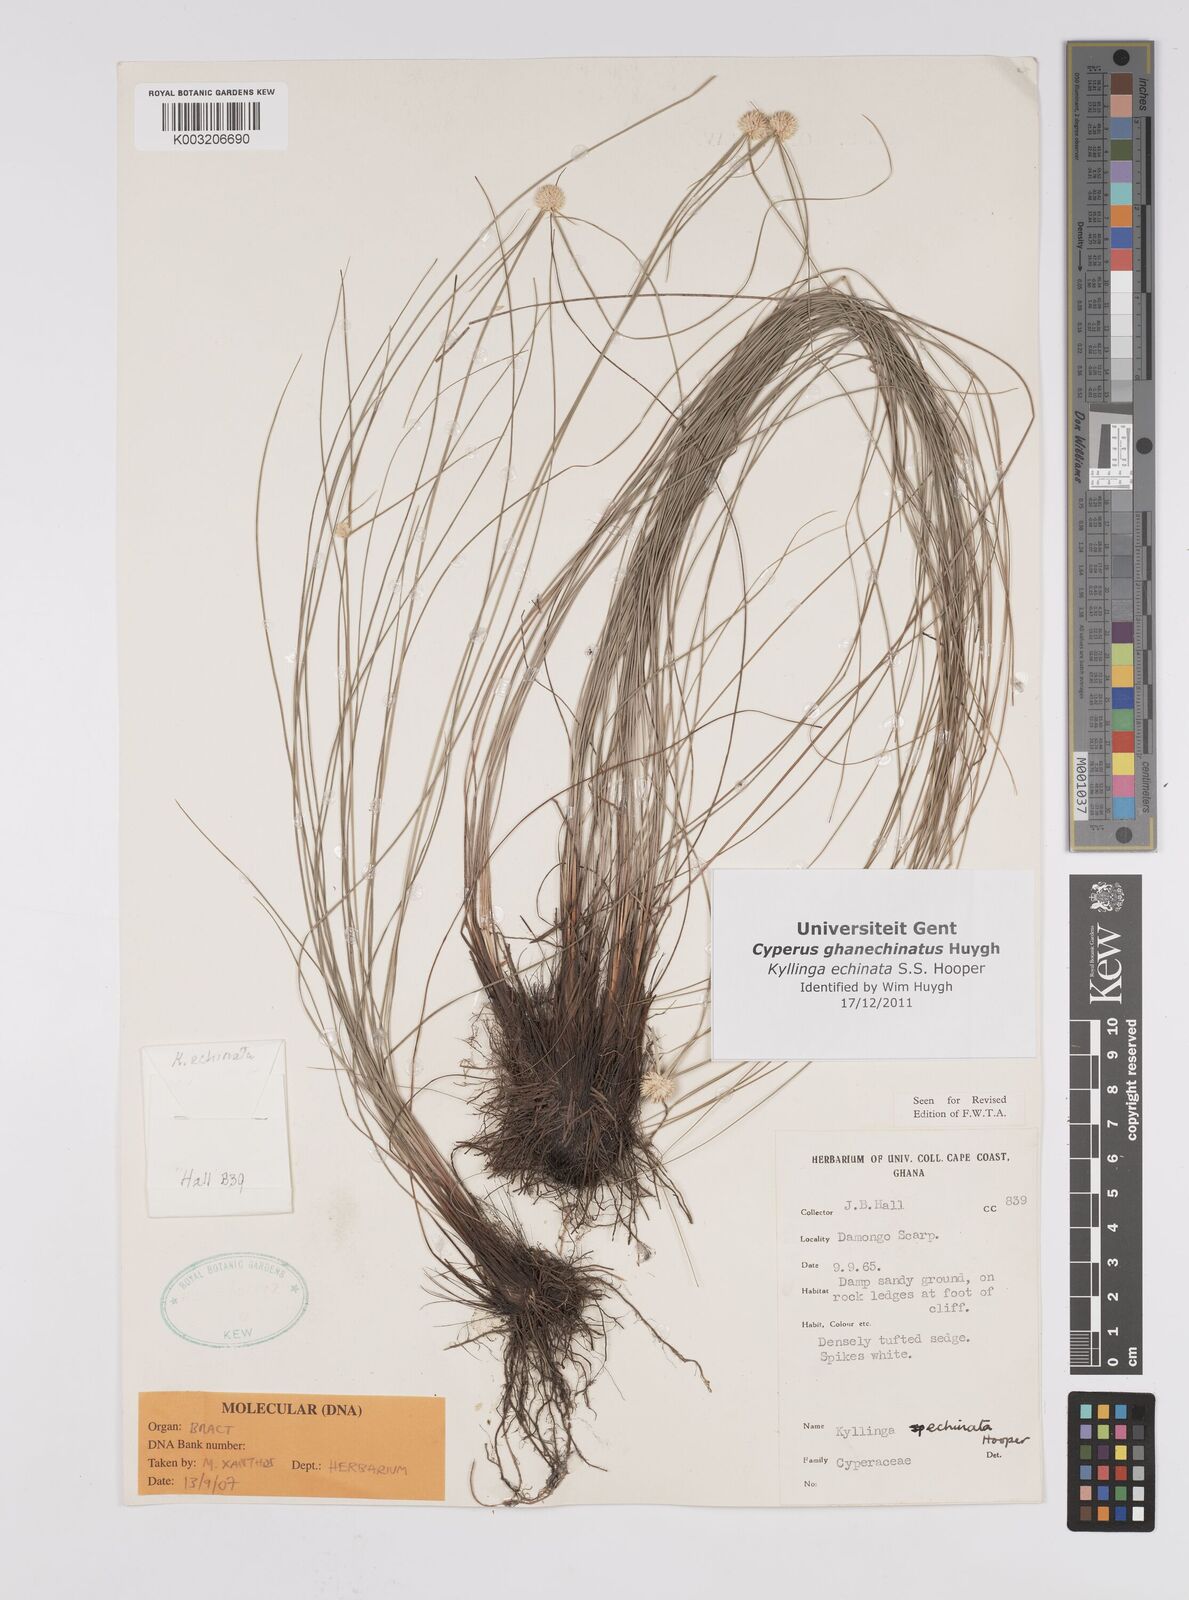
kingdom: Plantae
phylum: Tracheophyta
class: Liliopsida
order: Poales
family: Cyperaceae
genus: Cyperus
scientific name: Cyperus echinatus
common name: Teasel sedge
